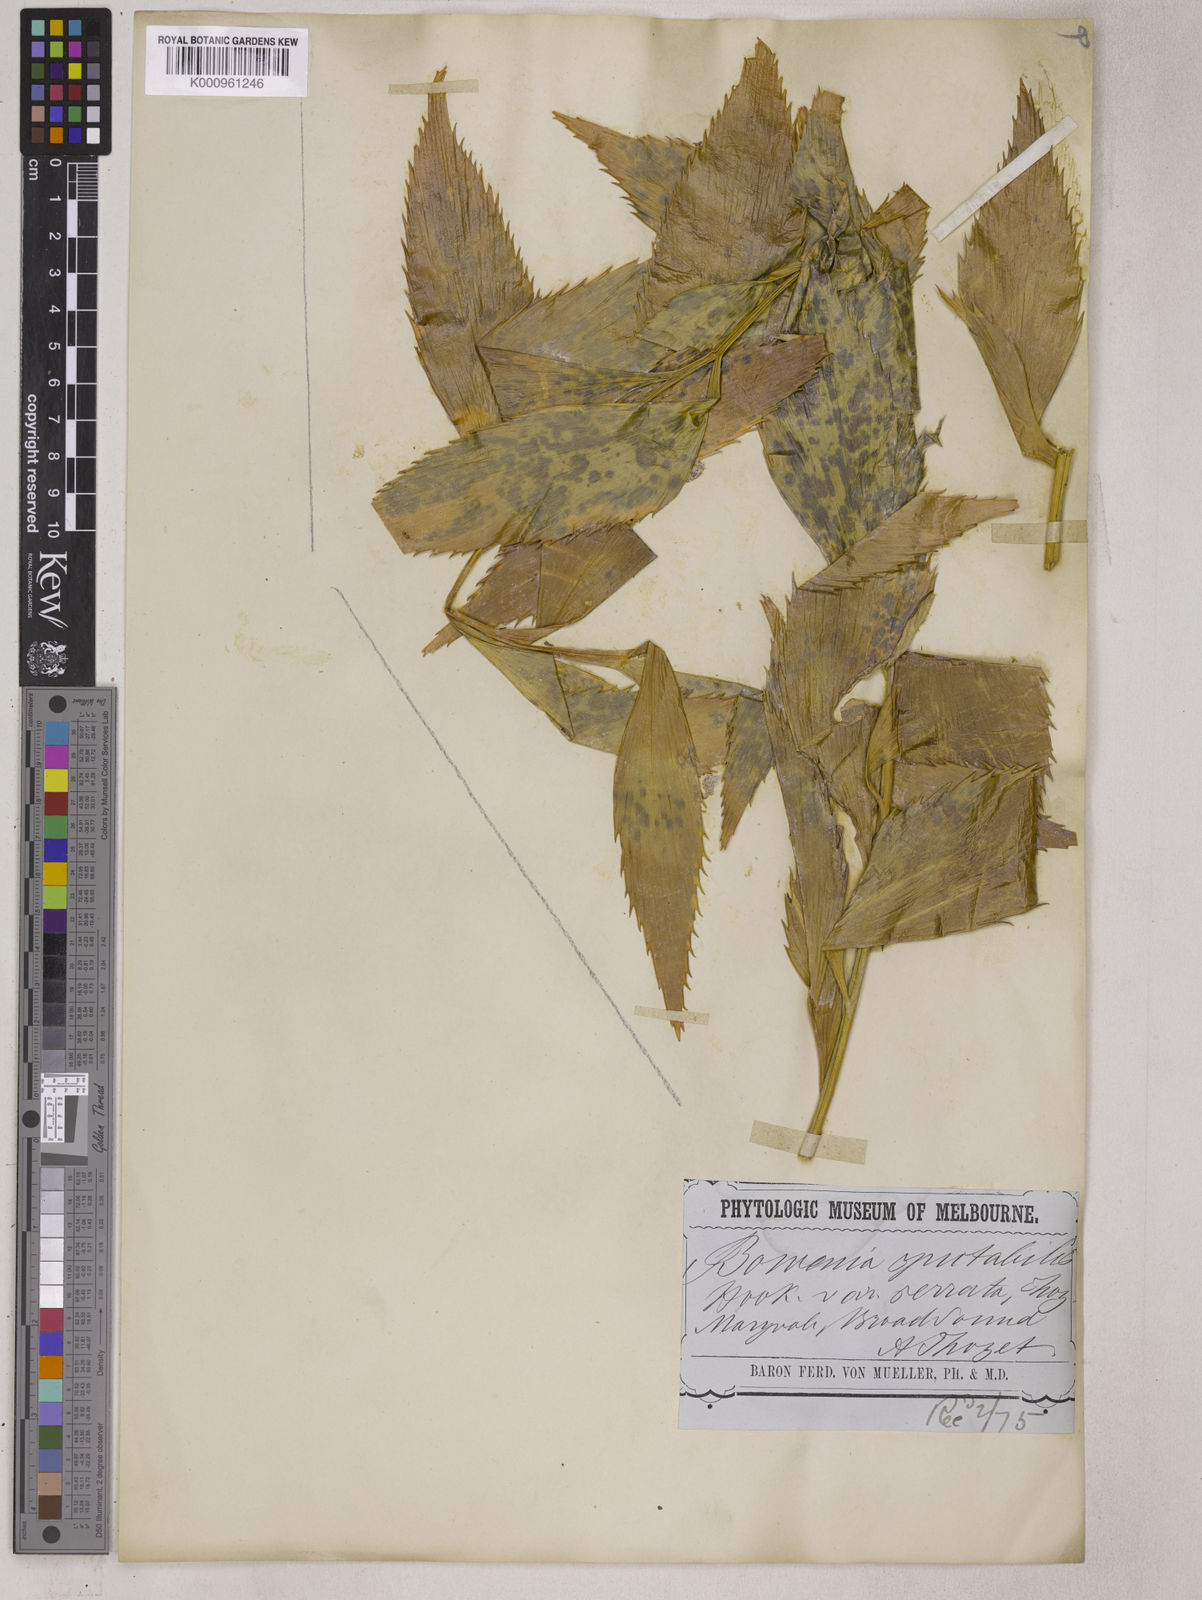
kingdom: Plantae
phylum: Tracheophyta
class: Cycadopsida
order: Cycadales
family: Zamiaceae
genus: Bowenia
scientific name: Bowenia serrulata
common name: Byfield fern
